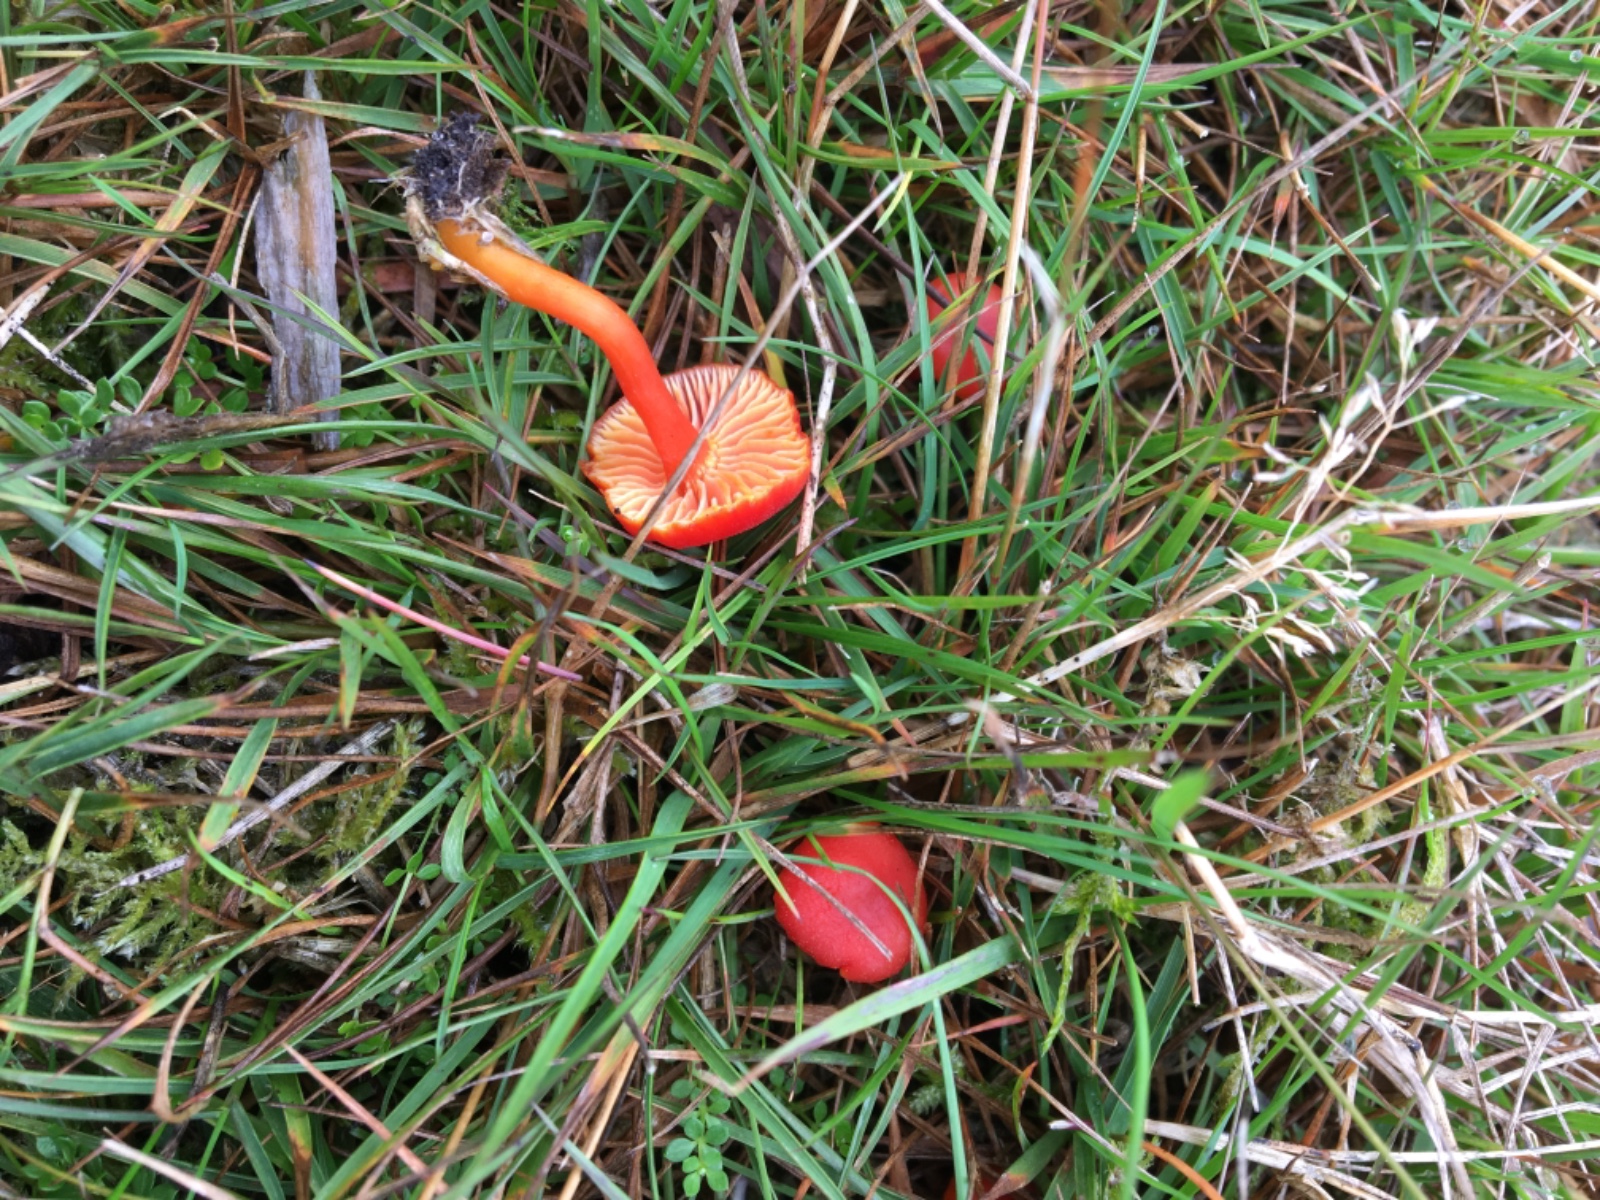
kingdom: Fungi
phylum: Basidiomycota
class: Agaricomycetes
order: Agaricales
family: Hygrophoraceae
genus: Hygrocybe
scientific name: Hygrocybe coccinea
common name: cinnober-vokshat
